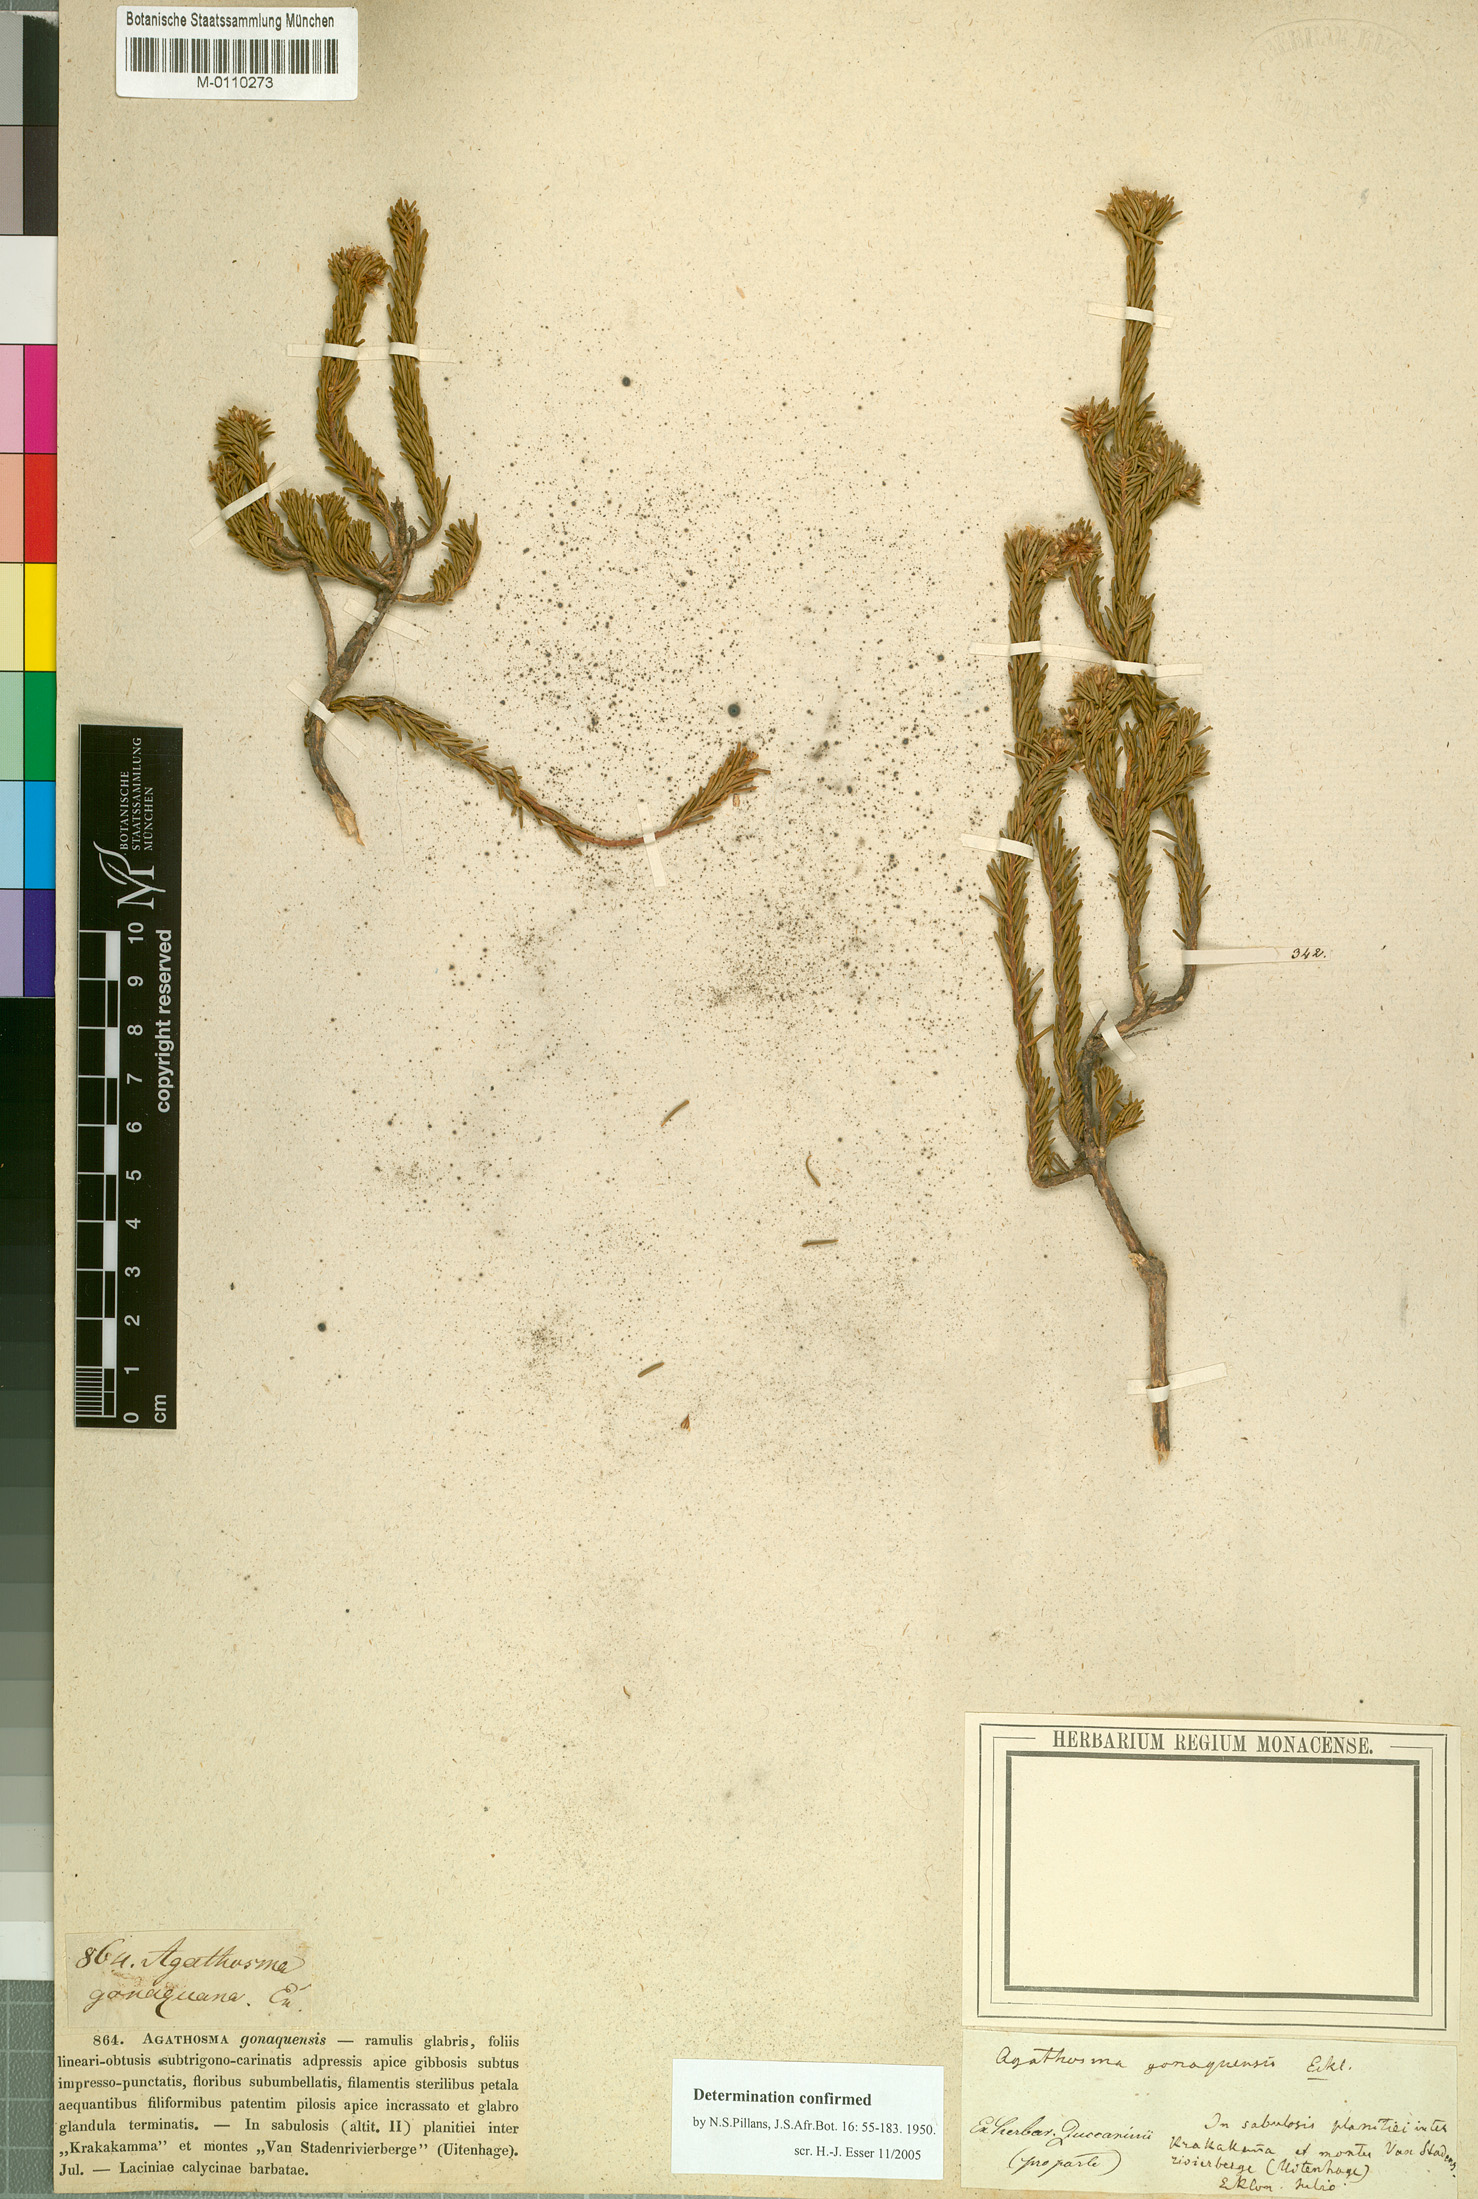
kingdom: Plantae
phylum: Tracheophyta
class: Magnoliopsida
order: Sapindales
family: Rutaceae
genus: Agathosma
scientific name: Agathosma gonaquensis
